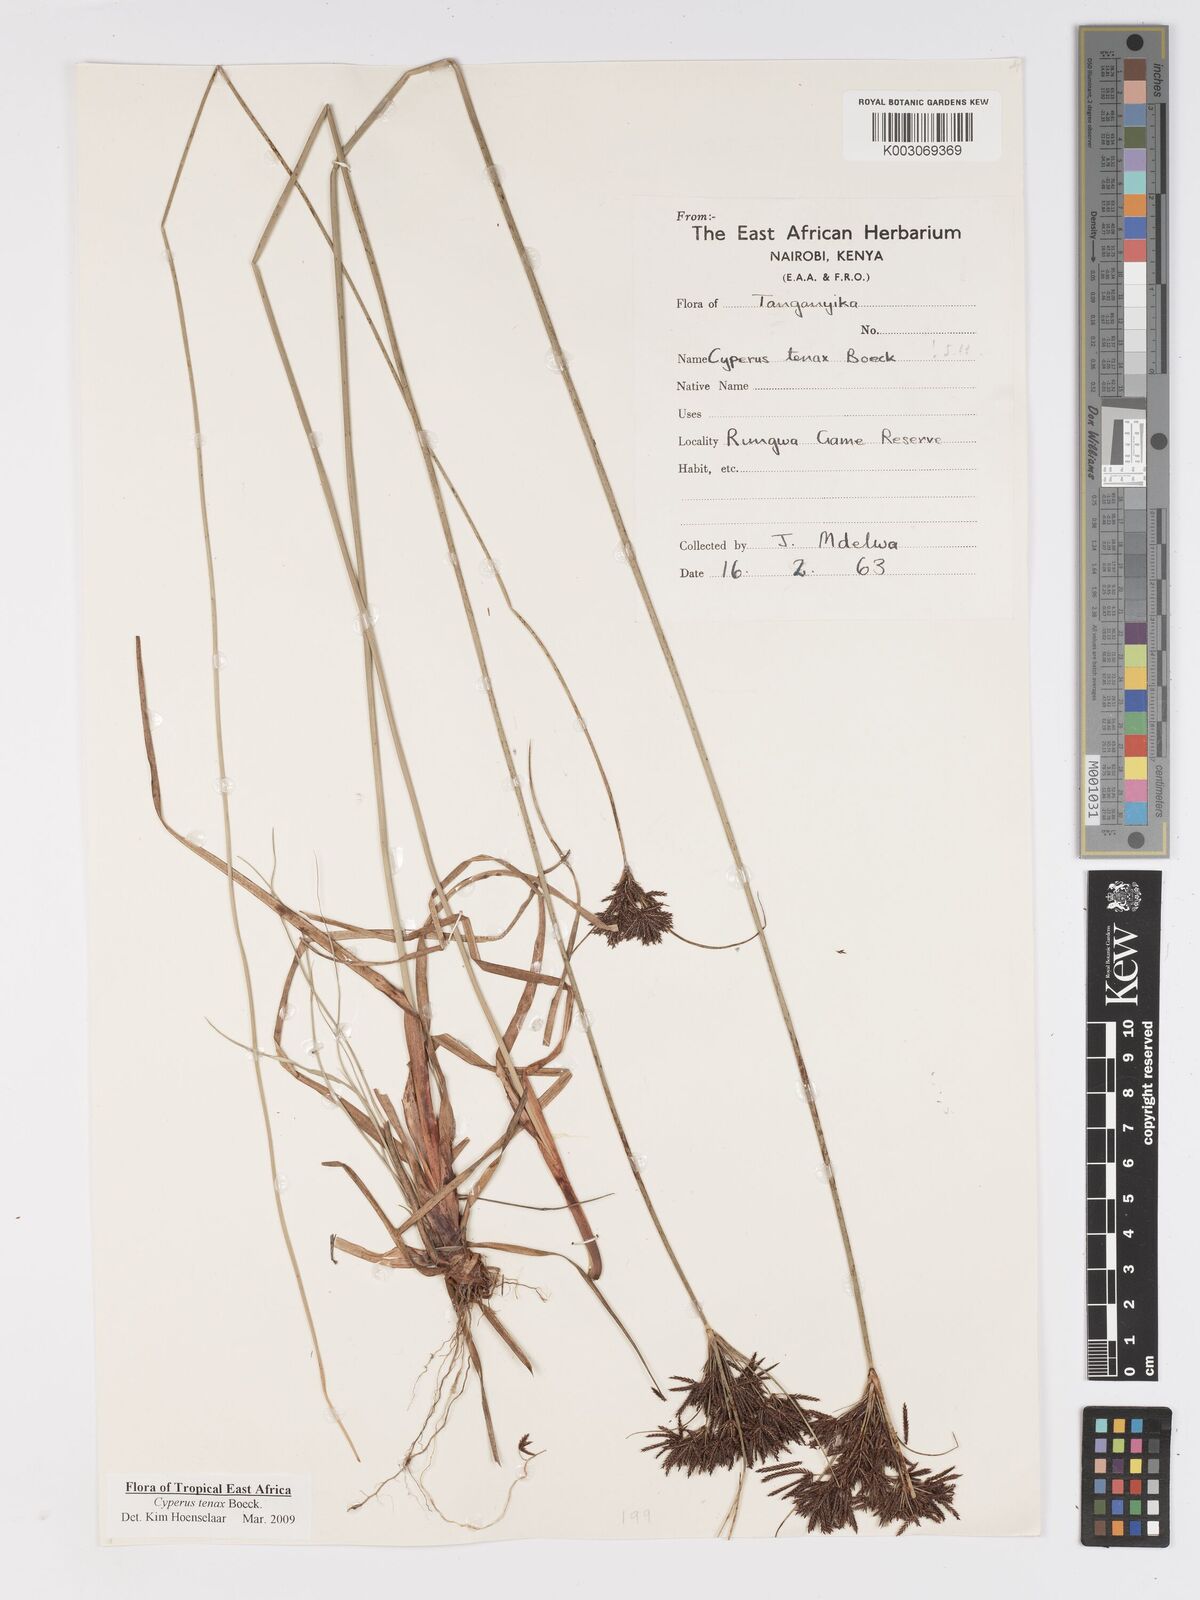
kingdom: Plantae
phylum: Tracheophyta
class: Liliopsida
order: Poales
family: Cyperaceae
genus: Cyperus
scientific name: Cyperus tenax
